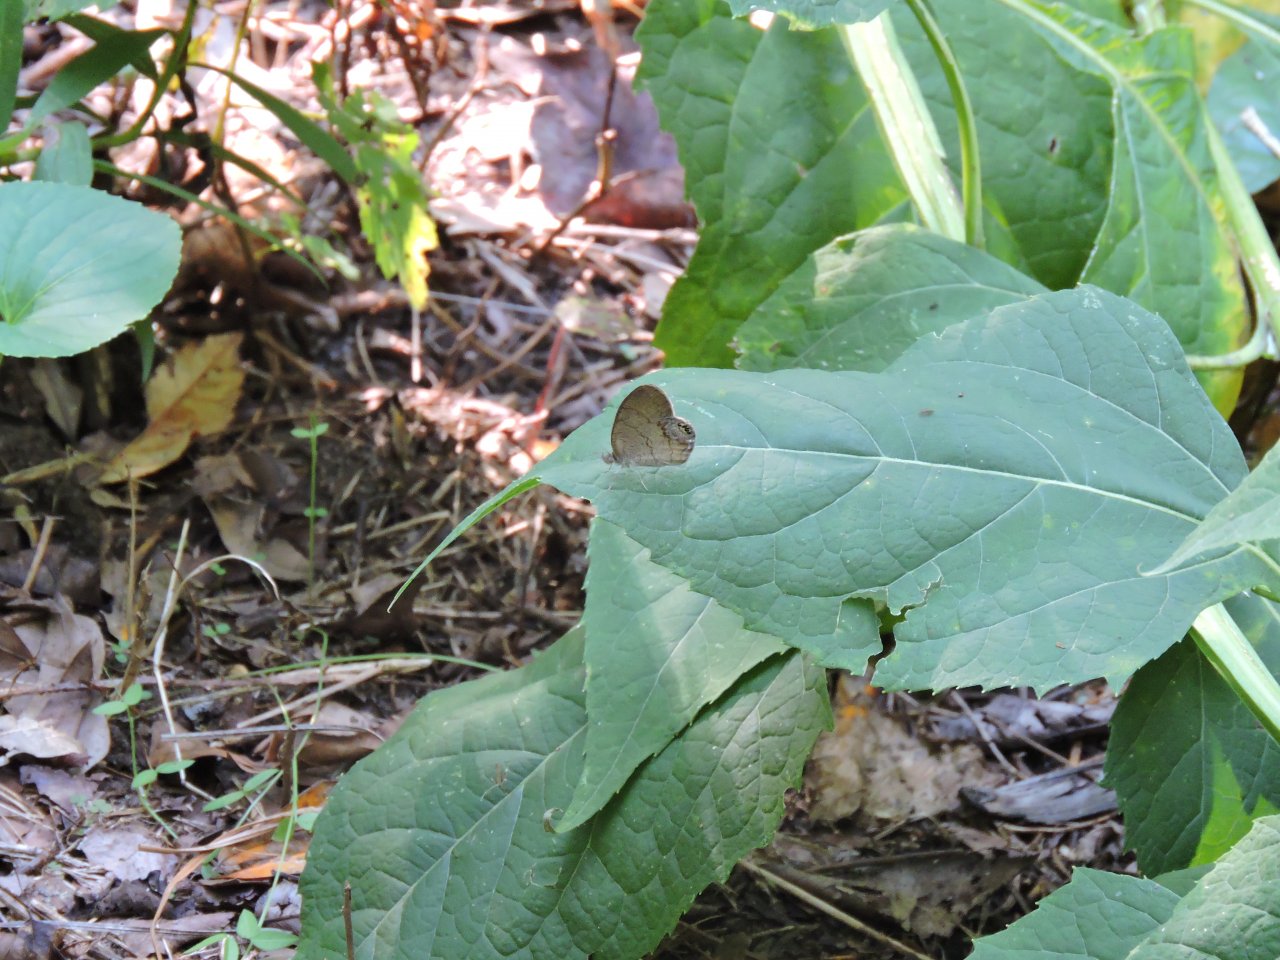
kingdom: Animalia
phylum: Arthropoda
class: Insecta
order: Lepidoptera
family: Nymphalidae
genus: Euptychia
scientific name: Euptychia cornelius
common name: Gemmed Satyr
